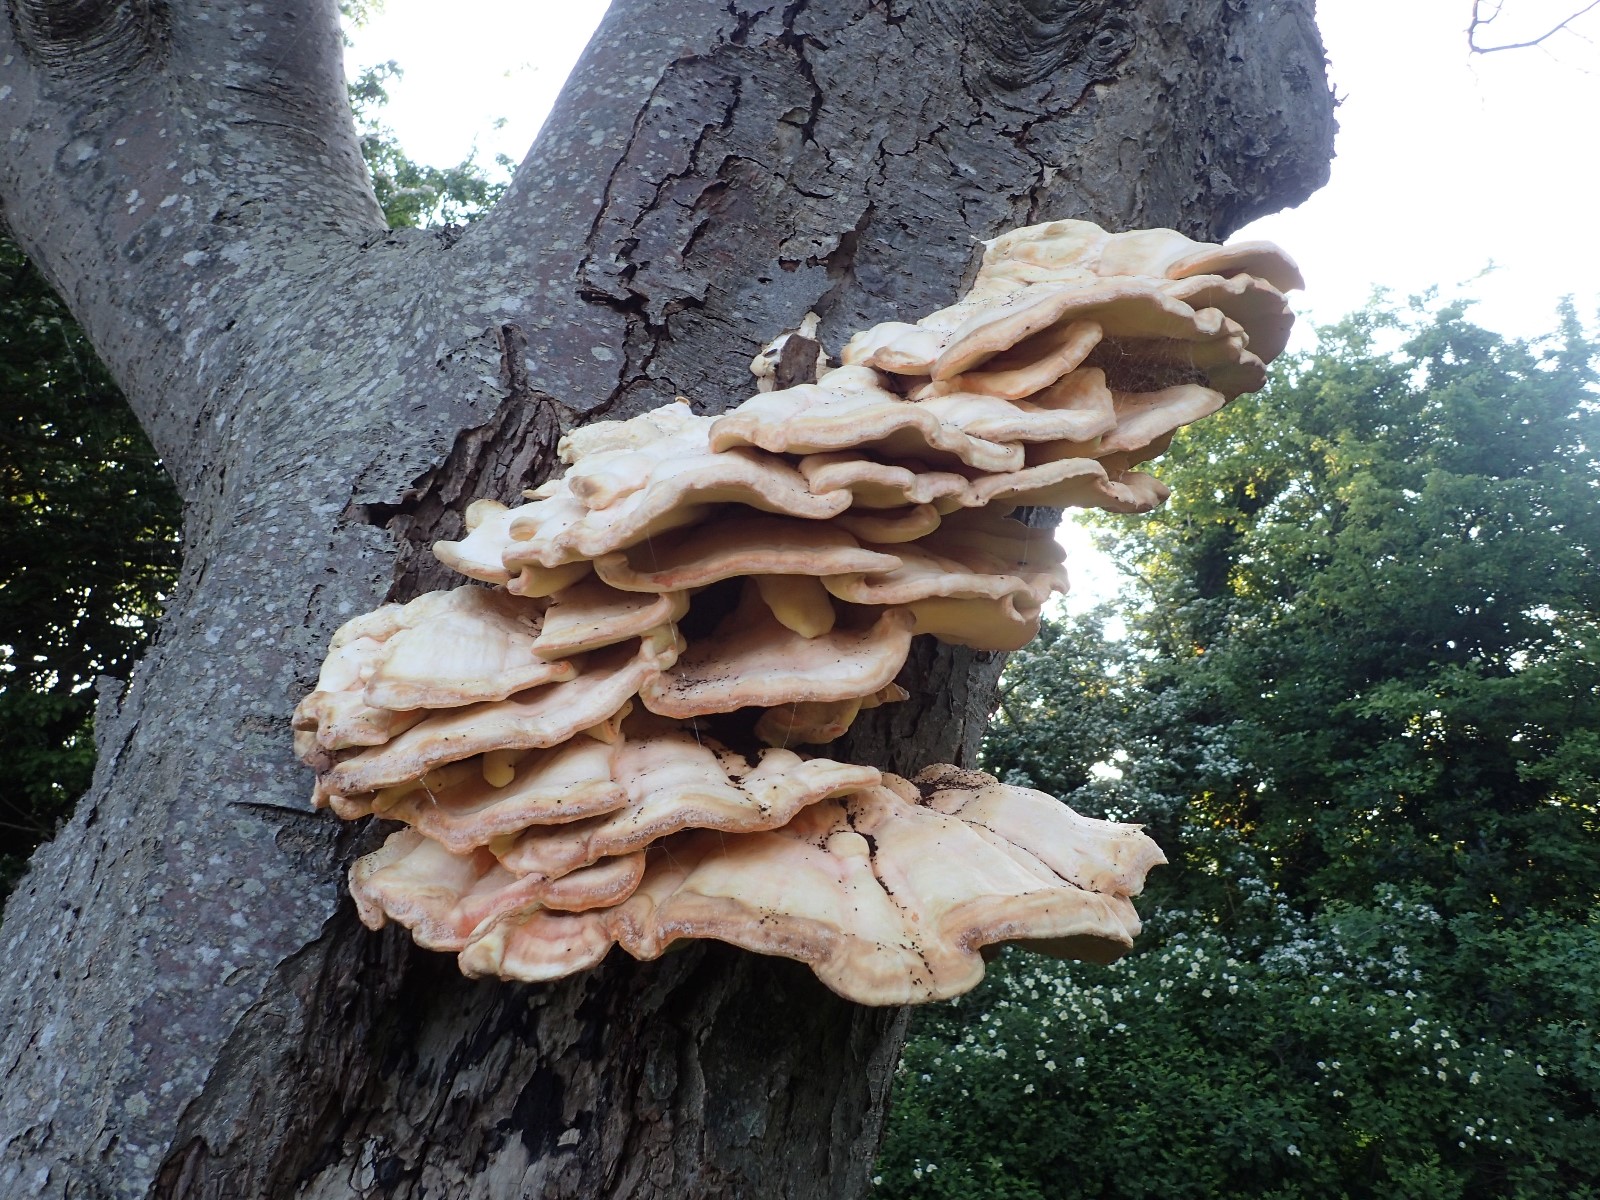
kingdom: Fungi
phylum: Basidiomycota
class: Agaricomycetes
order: Polyporales
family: Laetiporaceae
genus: Laetiporus
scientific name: Laetiporus sulphureus
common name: svovlporesvamp
